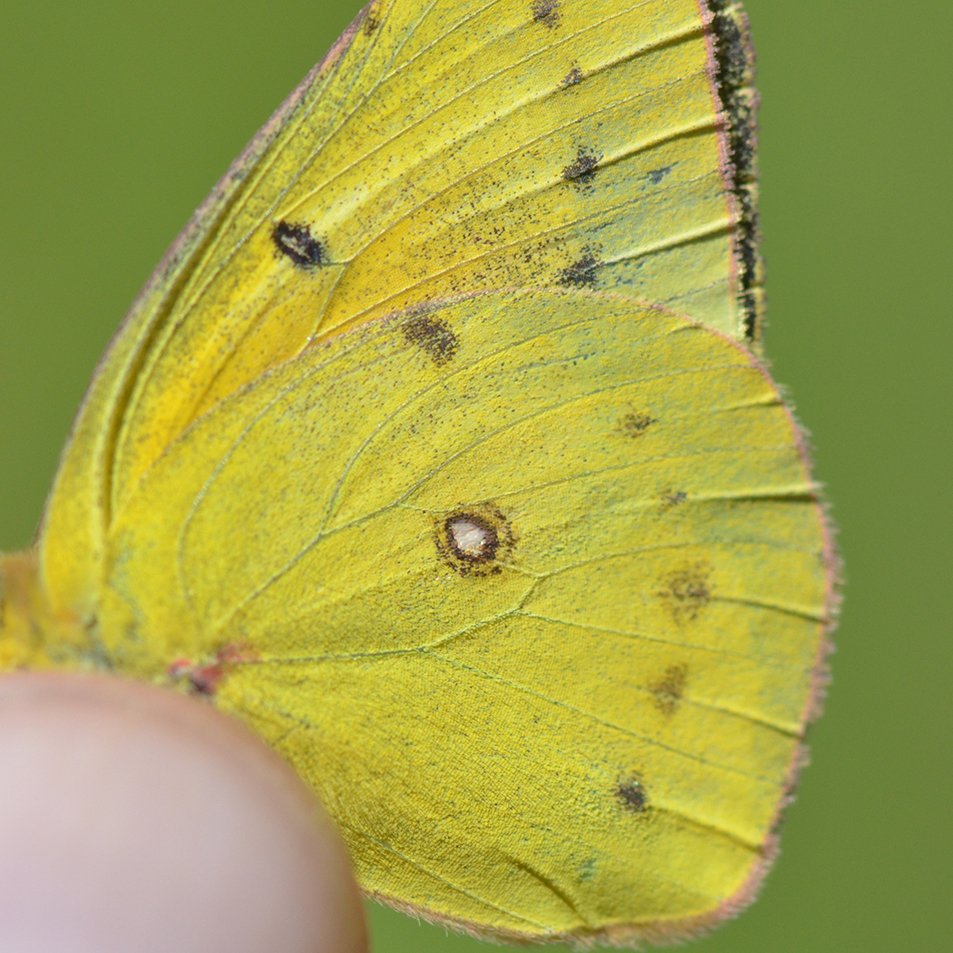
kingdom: Animalia
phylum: Arthropoda
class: Insecta
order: Lepidoptera
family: Pieridae
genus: Colias
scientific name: Colias eurytheme
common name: Orange Sulphur
